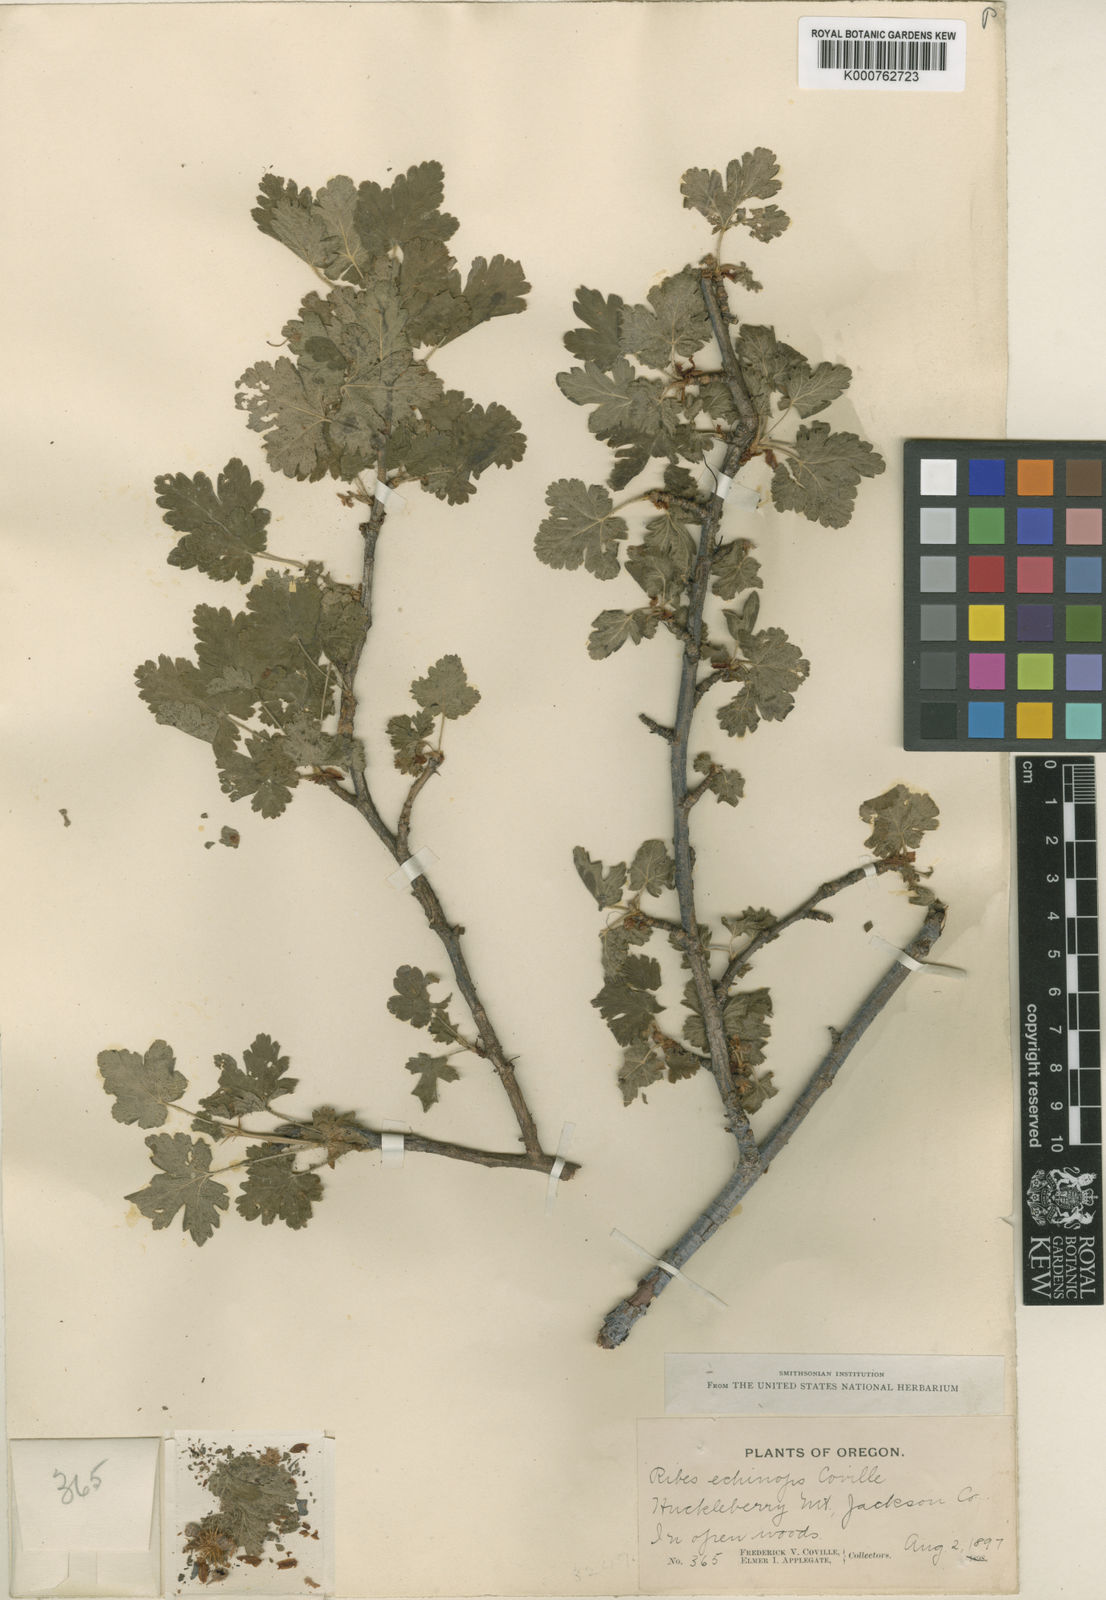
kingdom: Plantae
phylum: Tracheophyta
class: Magnoliopsida
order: Saxifragales
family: Grossulariaceae
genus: Ribes
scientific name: Ribes
